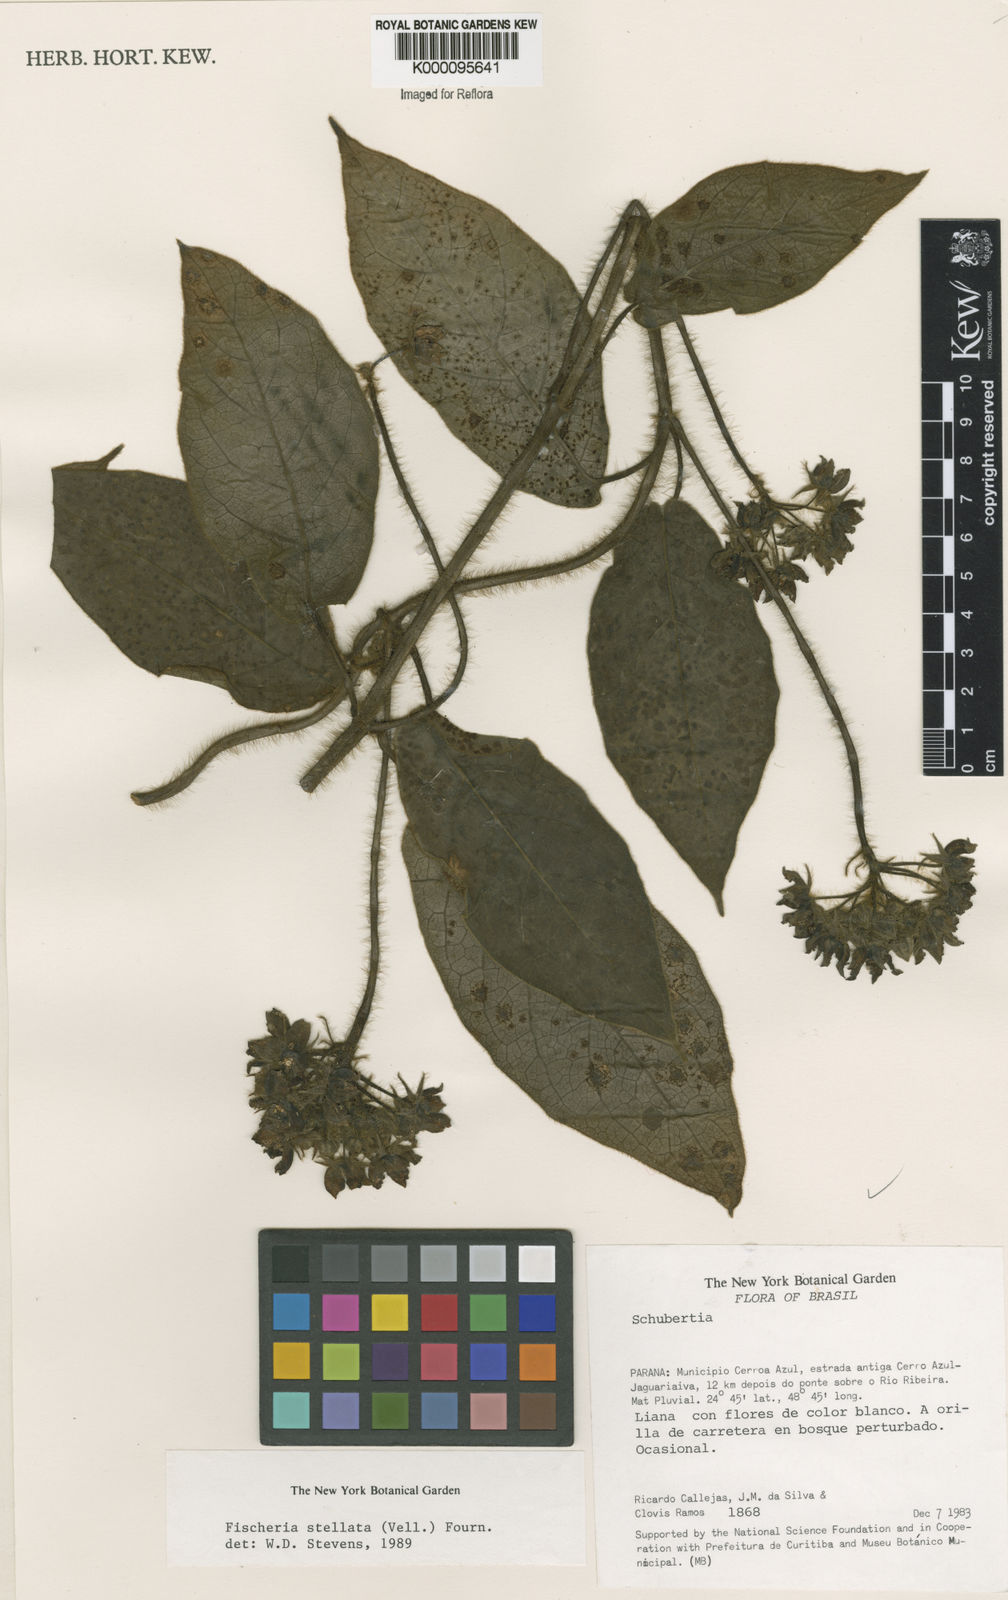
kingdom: Plantae
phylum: Tracheophyta
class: Magnoliopsida
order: Gentianales
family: Apocynaceae
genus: Fischeria
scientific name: Fischeria stellata
